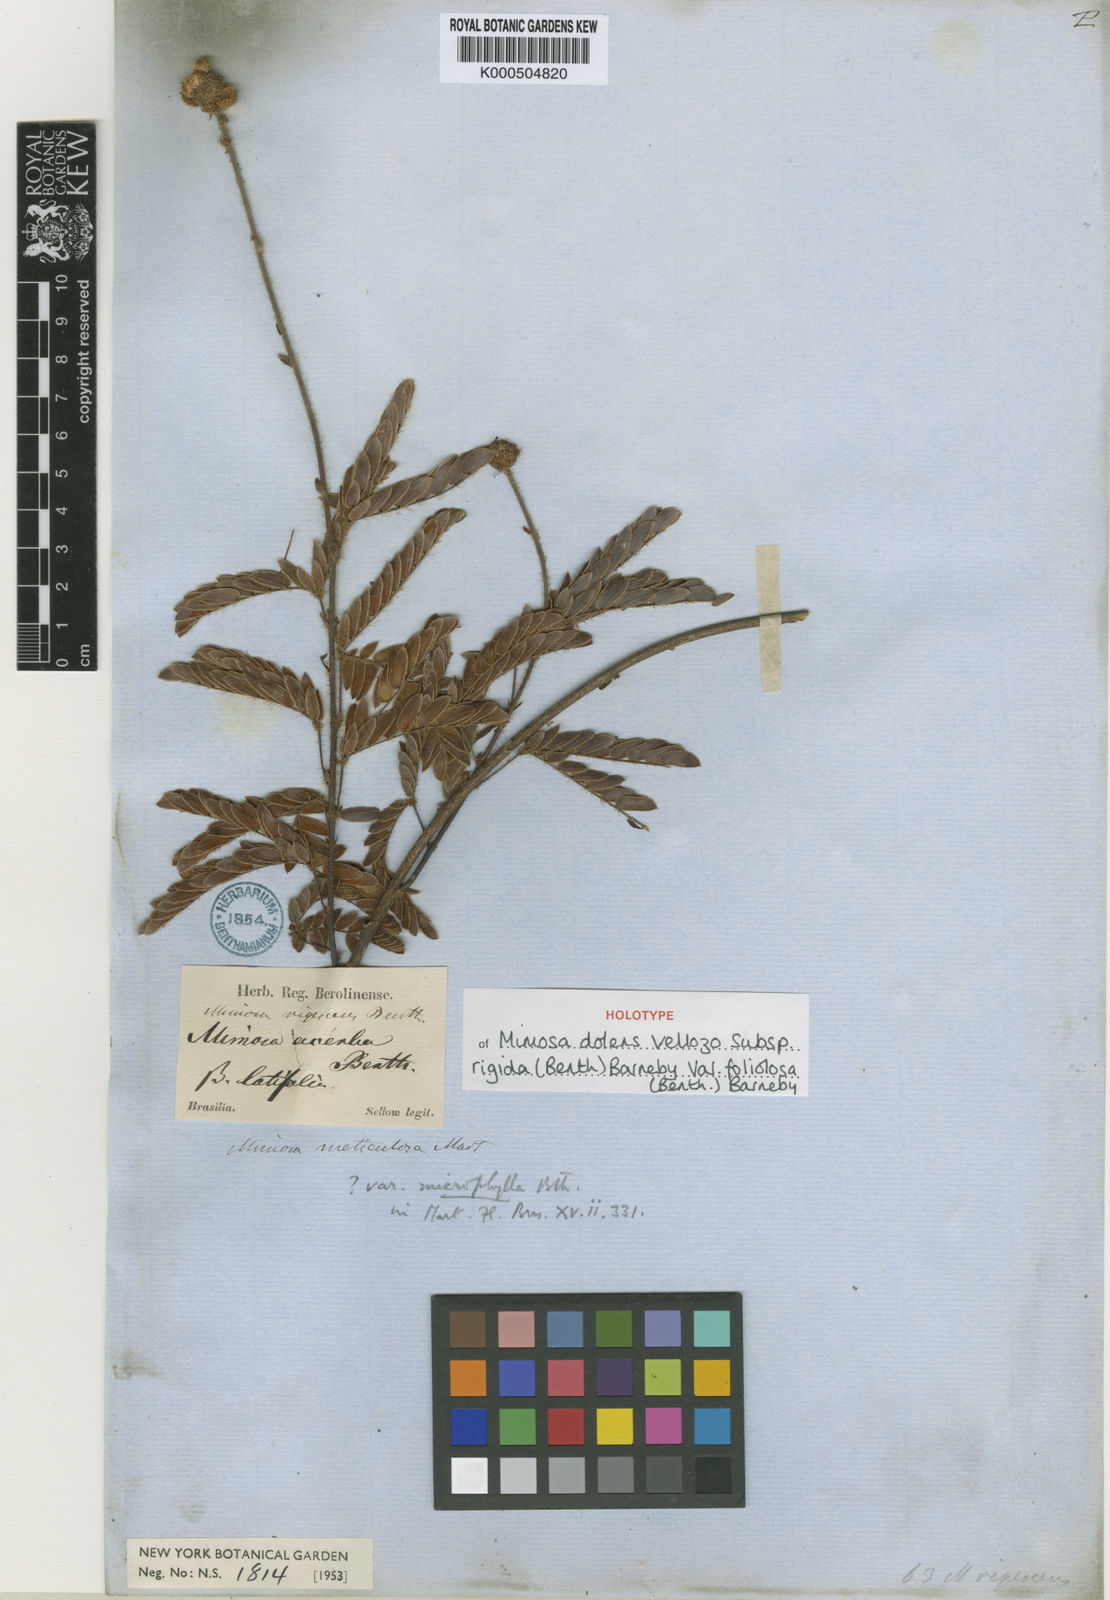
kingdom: Plantae
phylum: Tracheophyta
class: Magnoliopsida
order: Fabales
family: Fabaceae
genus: Mimosa
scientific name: Mimosa dolens
